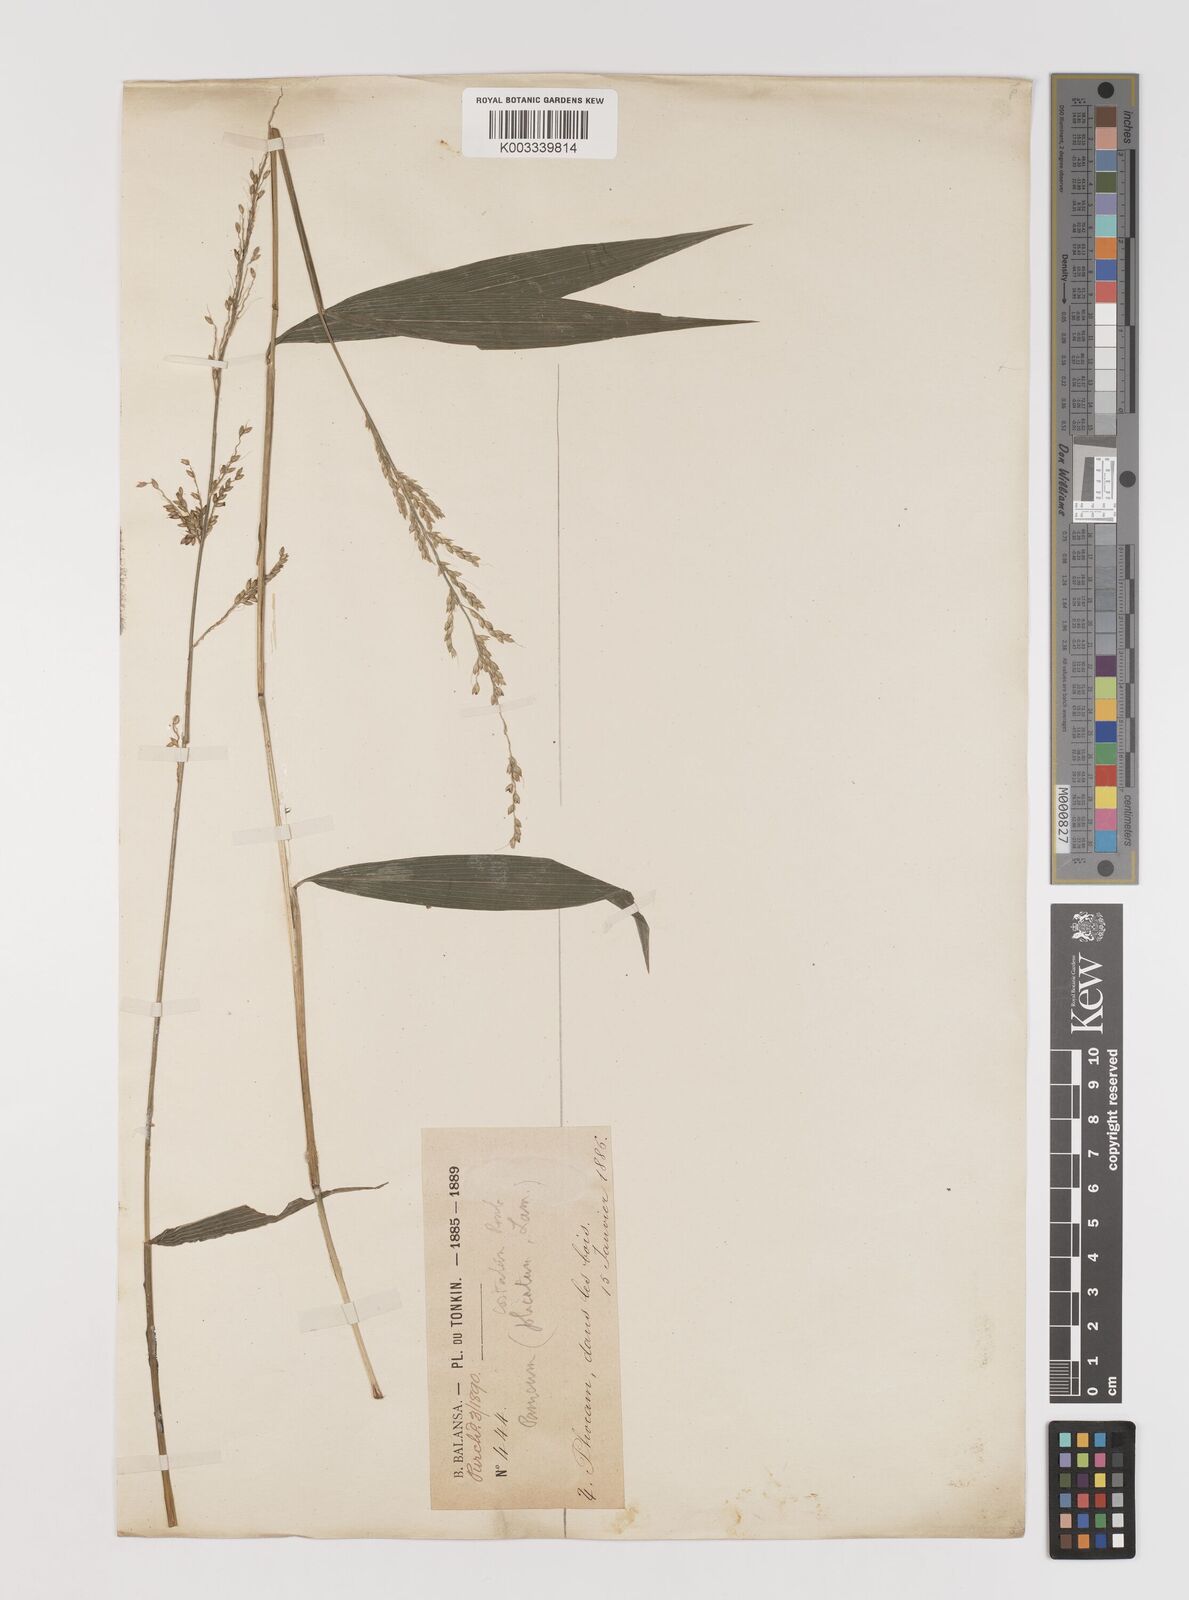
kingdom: Plantae
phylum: Tracheophyta
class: Liliopsida
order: Poales
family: Poaceae
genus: Setaria
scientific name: Setaria palmifolia
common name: Broadleaved bristlegrass
